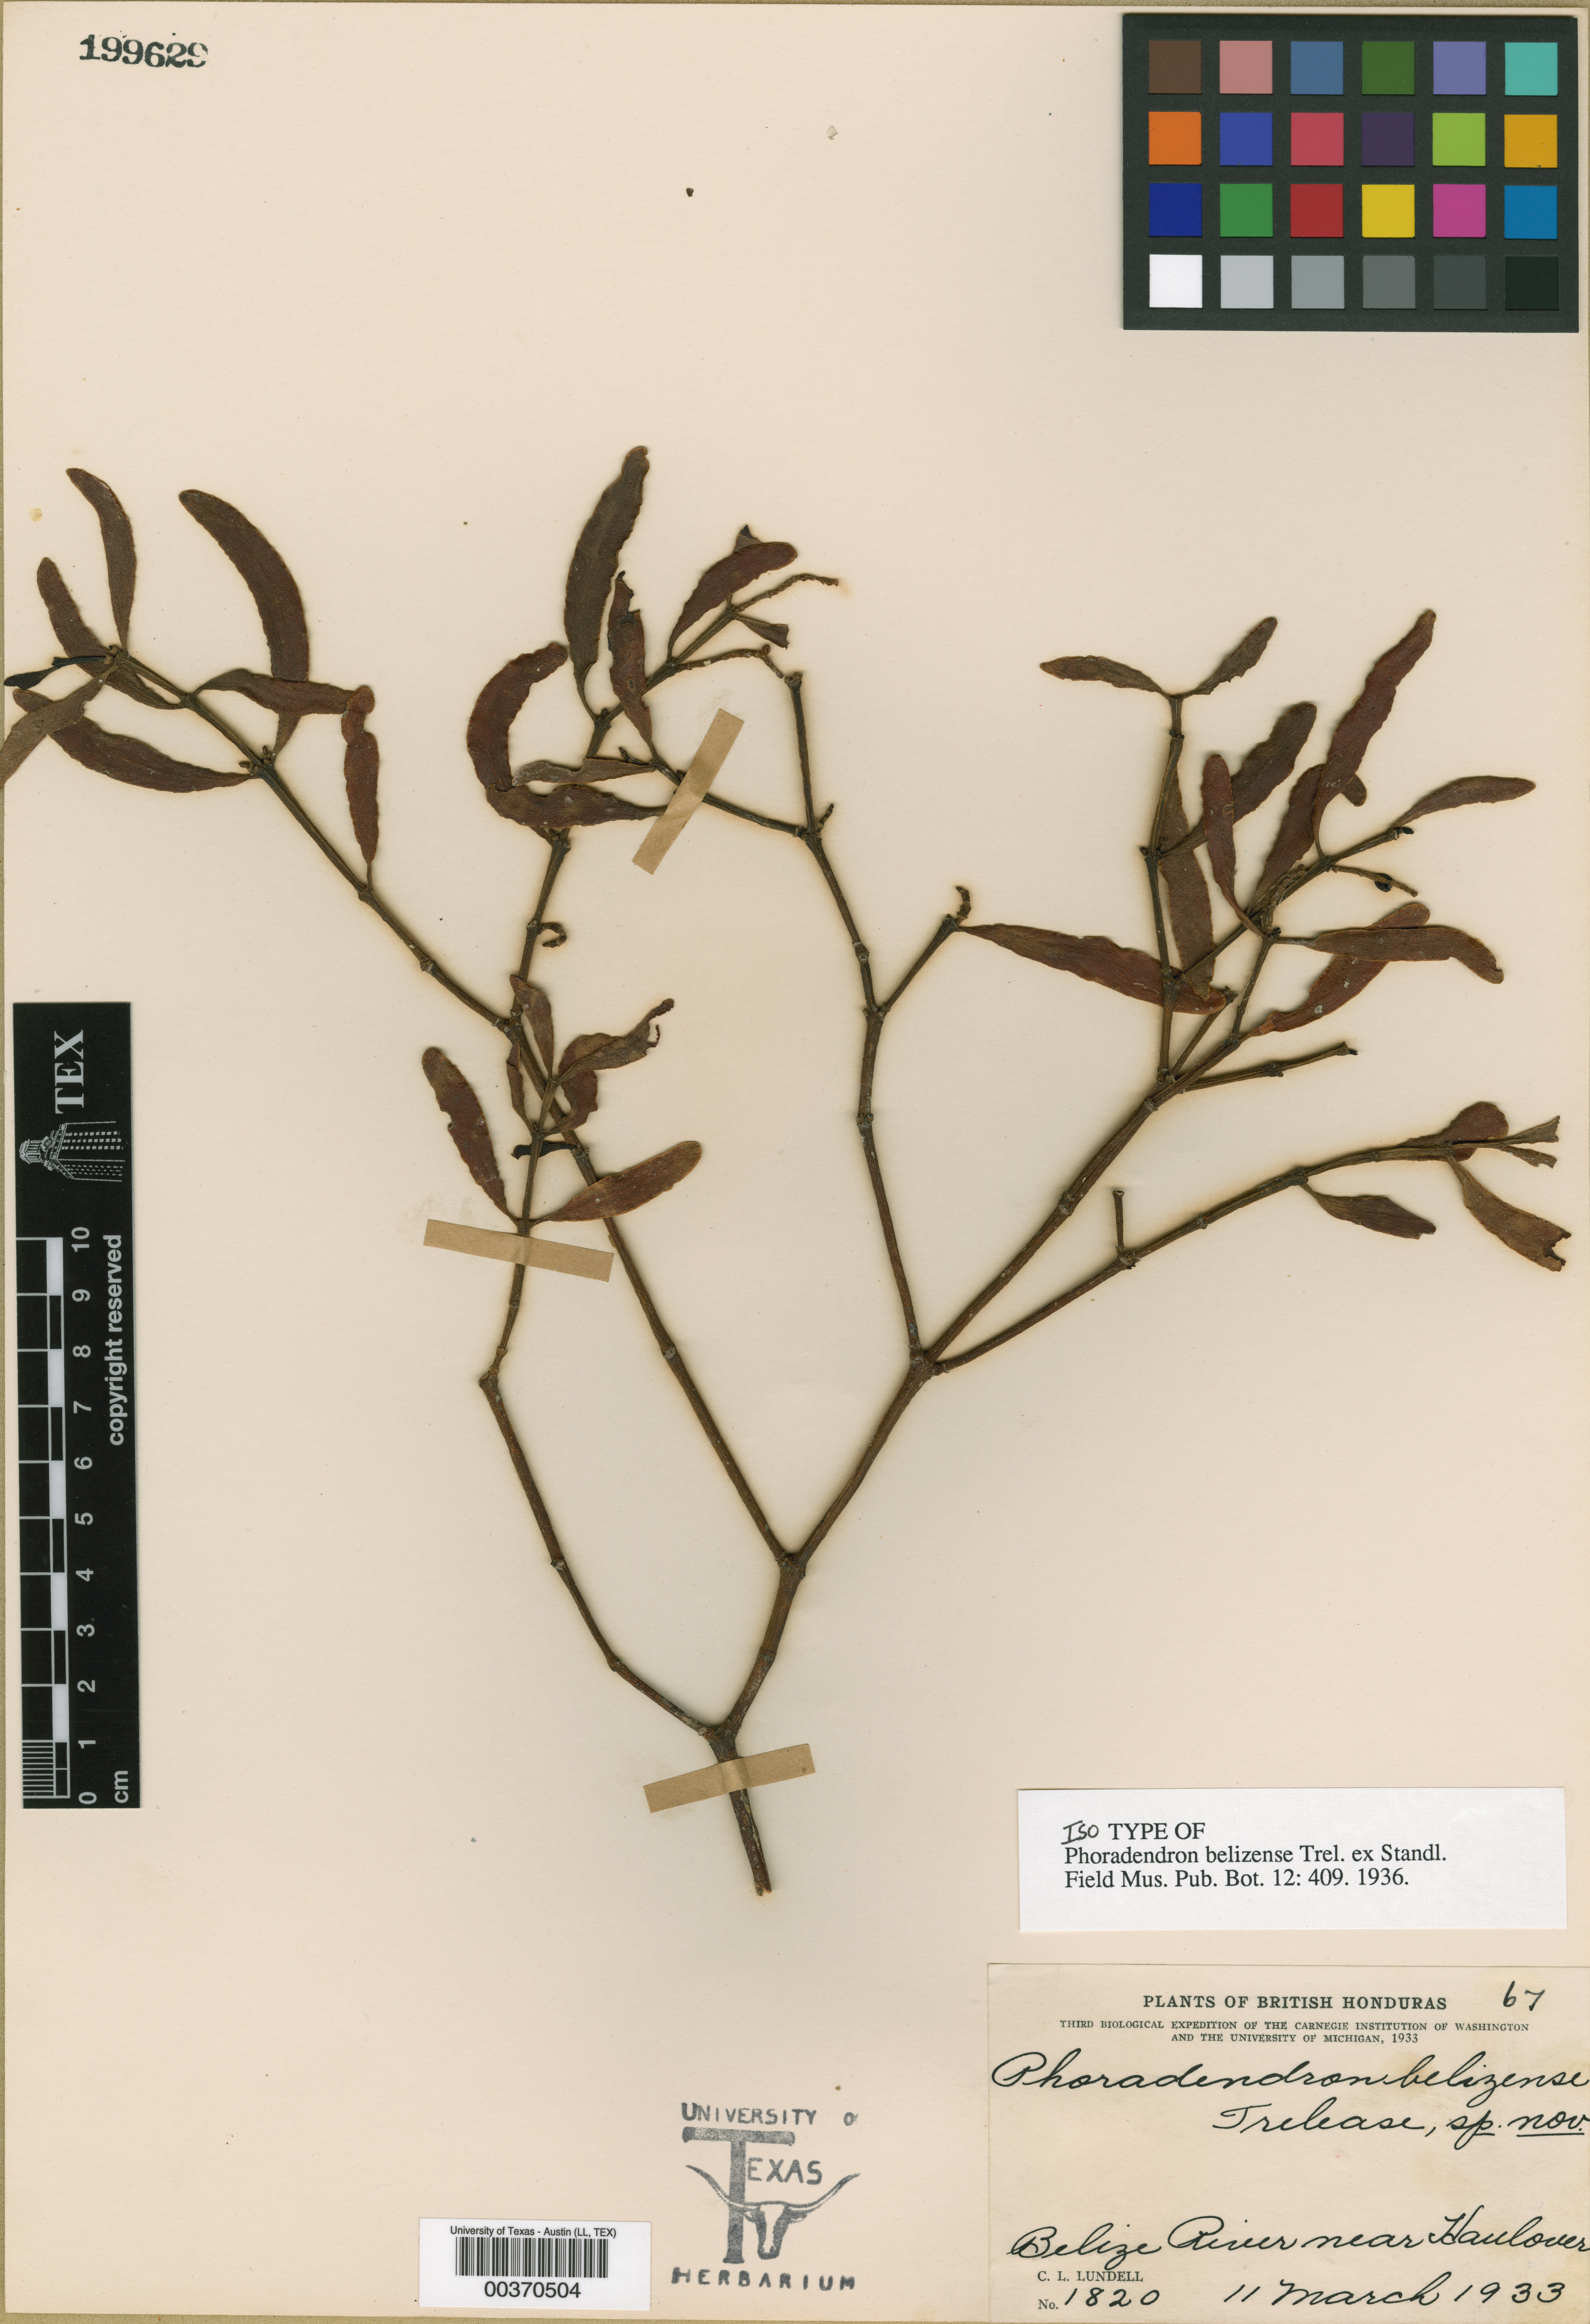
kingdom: Plantae
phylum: Tracheophyta
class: Magnoliopsida
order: Malpighiales
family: Hypericaceae
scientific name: Hypericaceae
